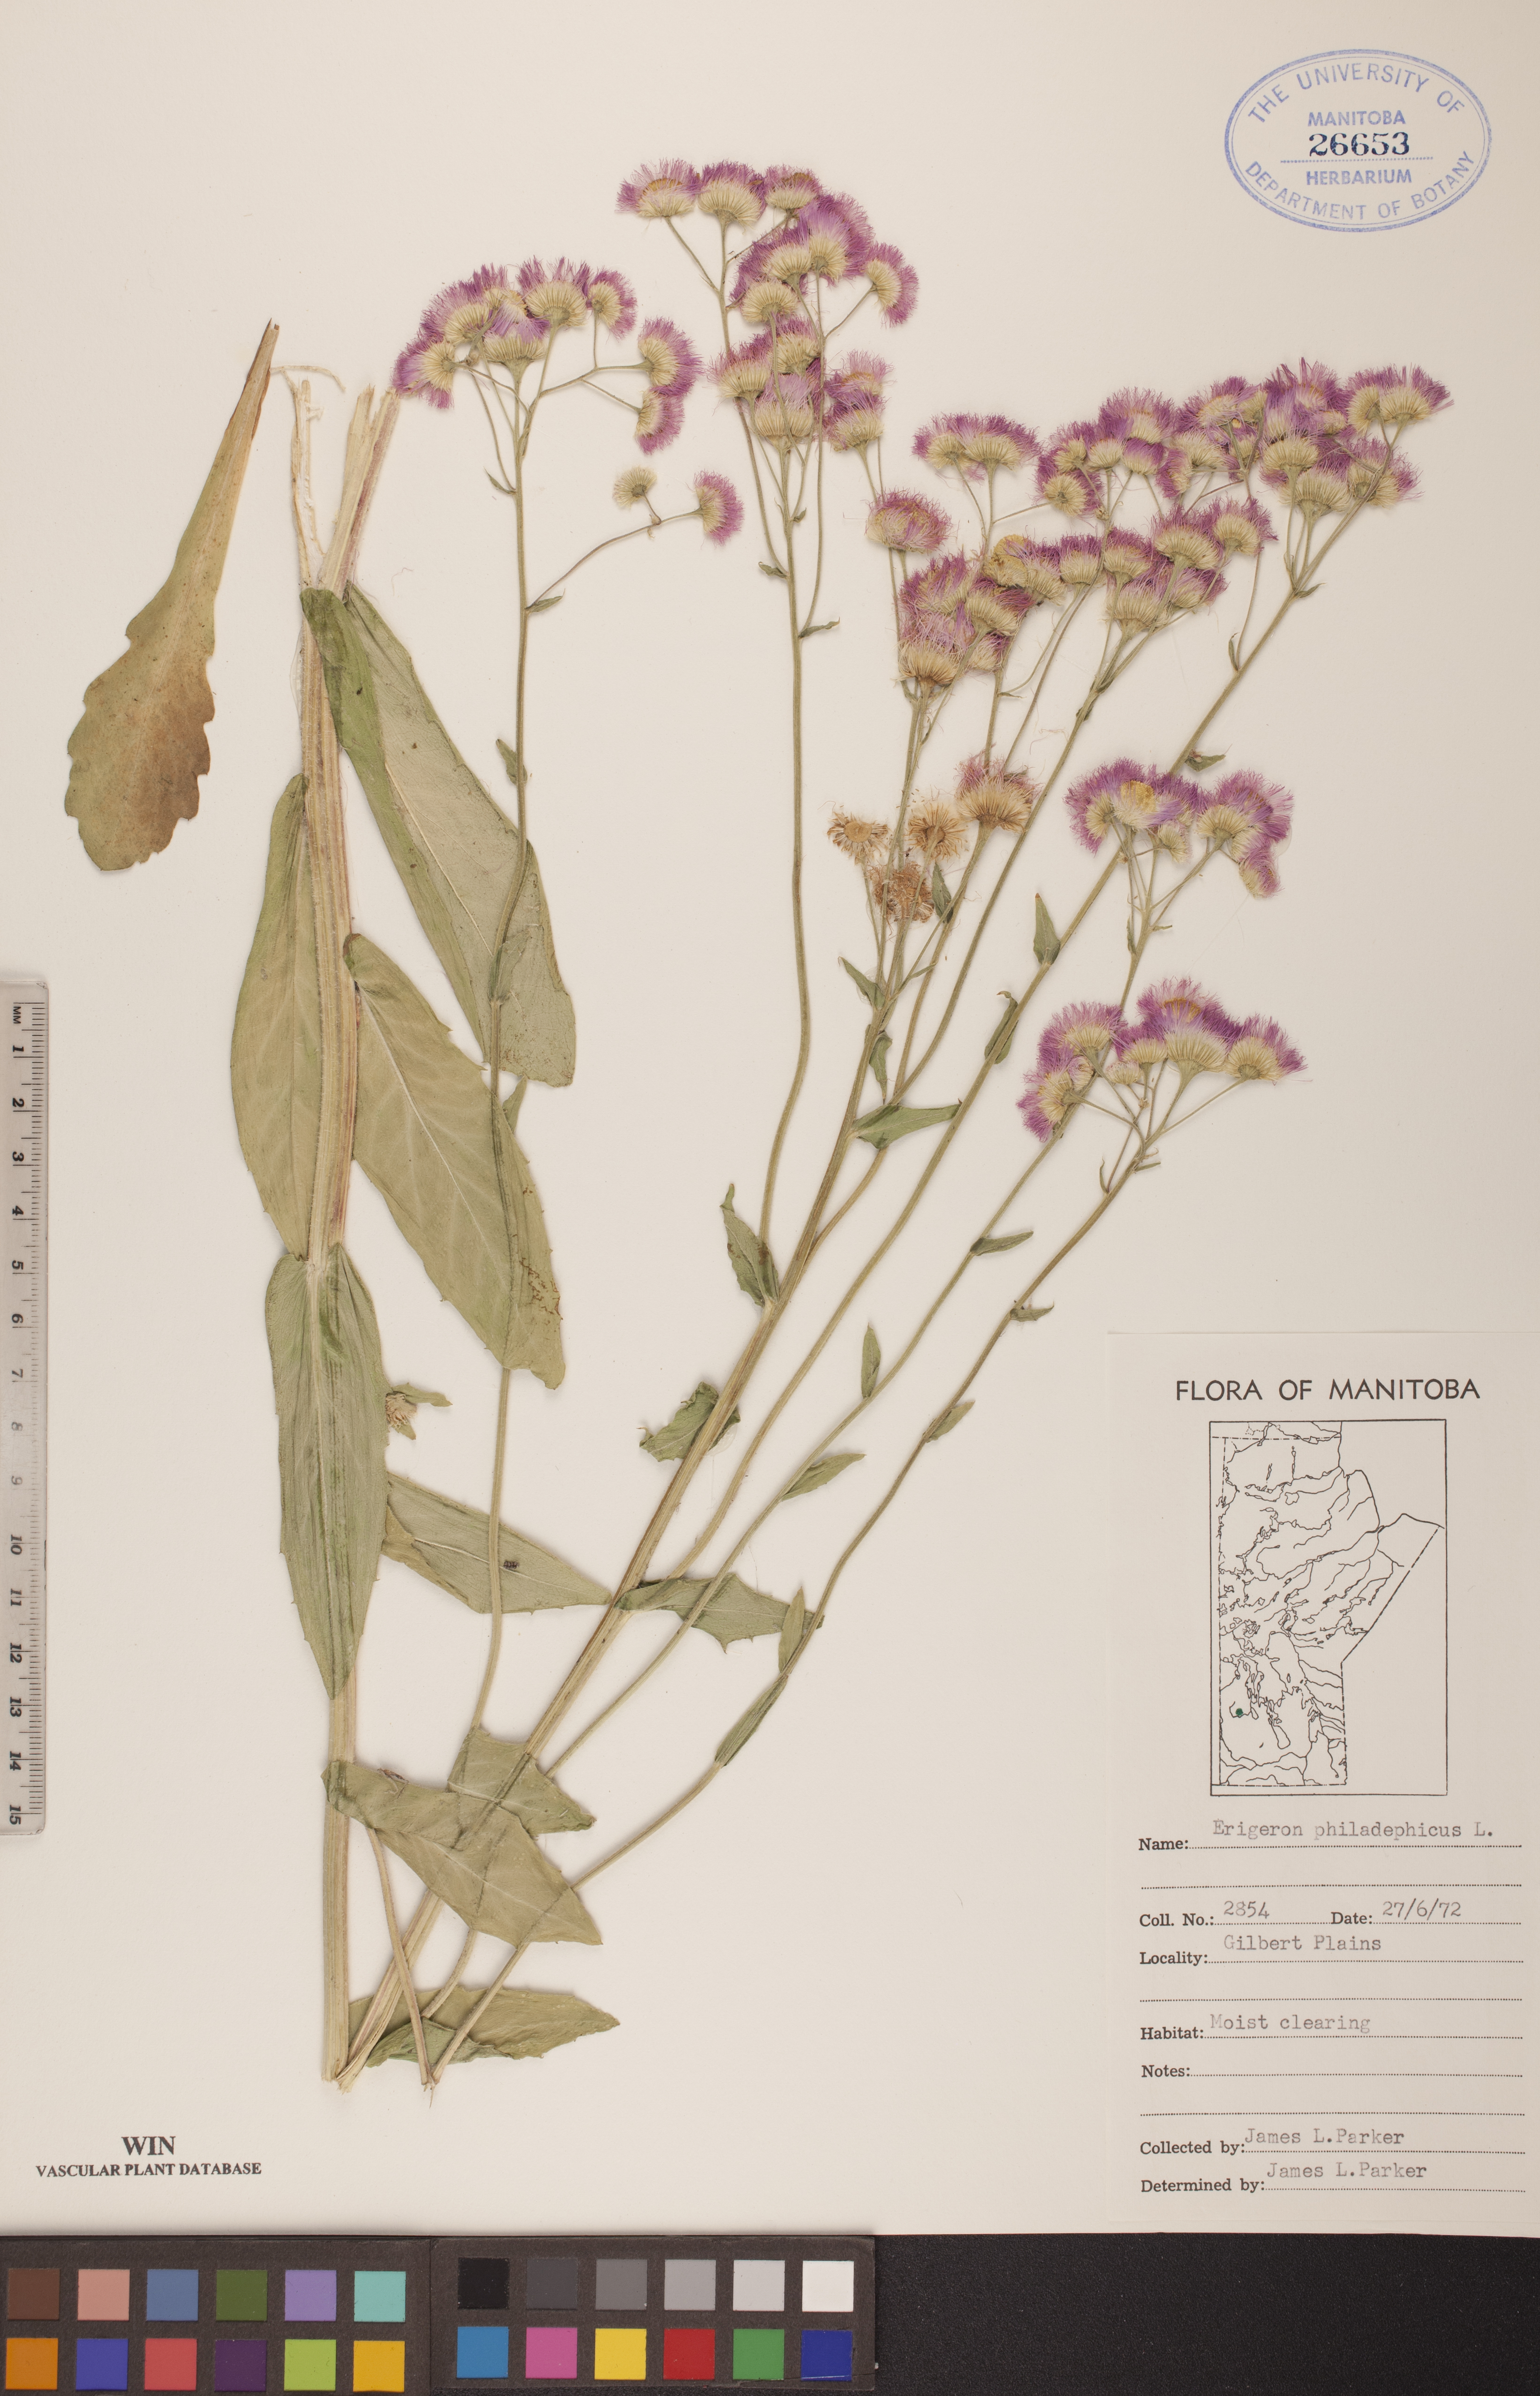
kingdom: Plantae
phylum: Tracheophyta
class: Magnoliopsida
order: Asterales
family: Asteraceae
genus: Erigeron
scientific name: Erigeron philadelphicus
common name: Robin's-plantain
